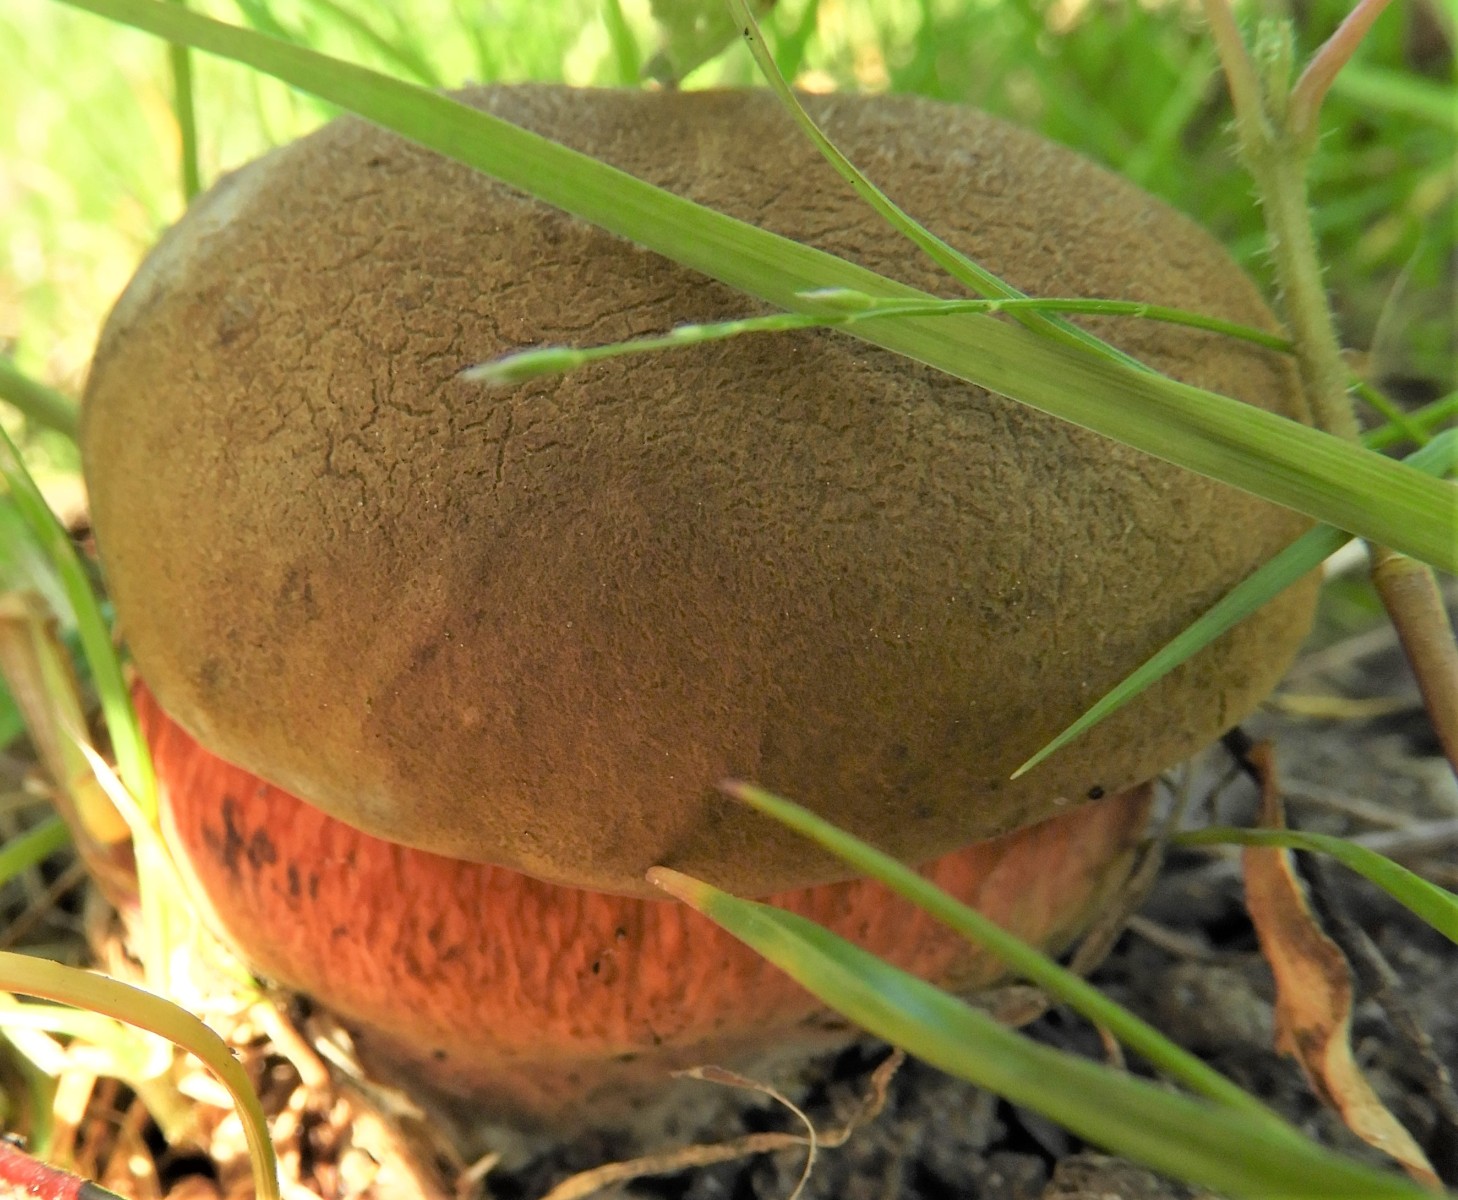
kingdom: Fungi
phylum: Basidiomycota
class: Agaricomycetes
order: Boletales
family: Boletaceae
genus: Suillellus
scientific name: Suillellus luridus
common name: netstokket indigorørhat
